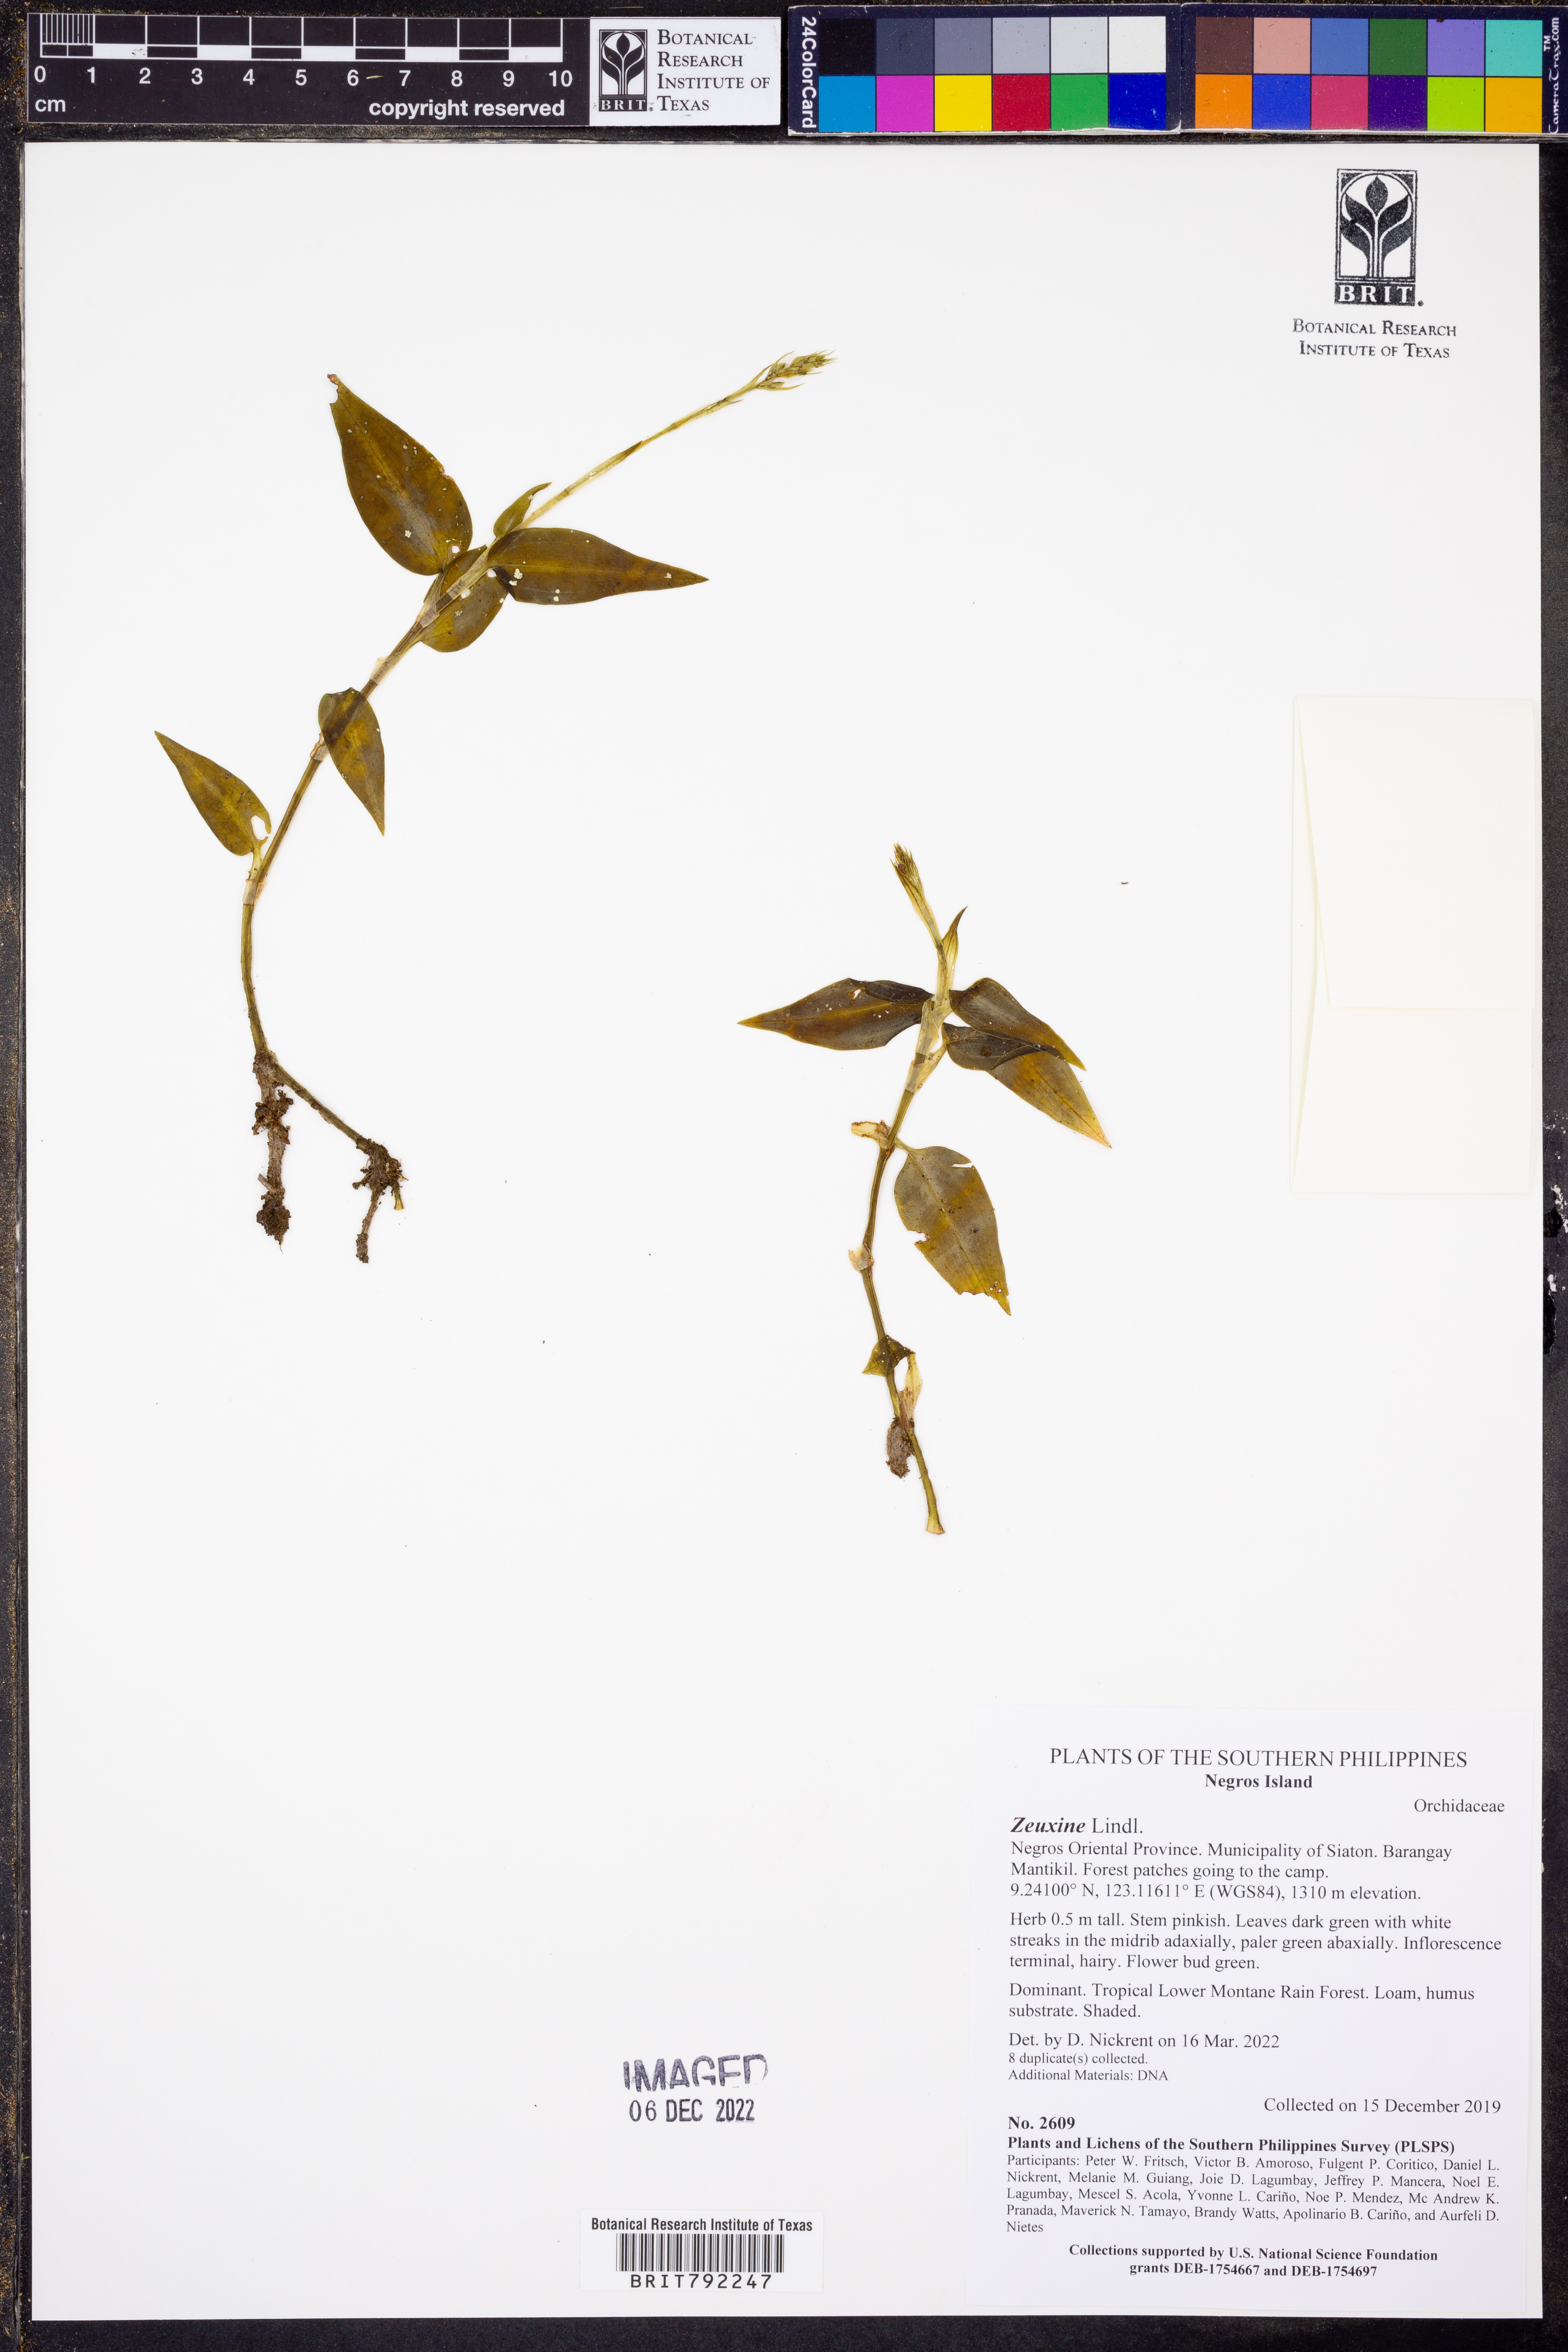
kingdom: Plantae
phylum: Tracheophyta
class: Liliopsida
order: Asparagales
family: Orchidaceae
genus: Zeuxine
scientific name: Zeuxine
